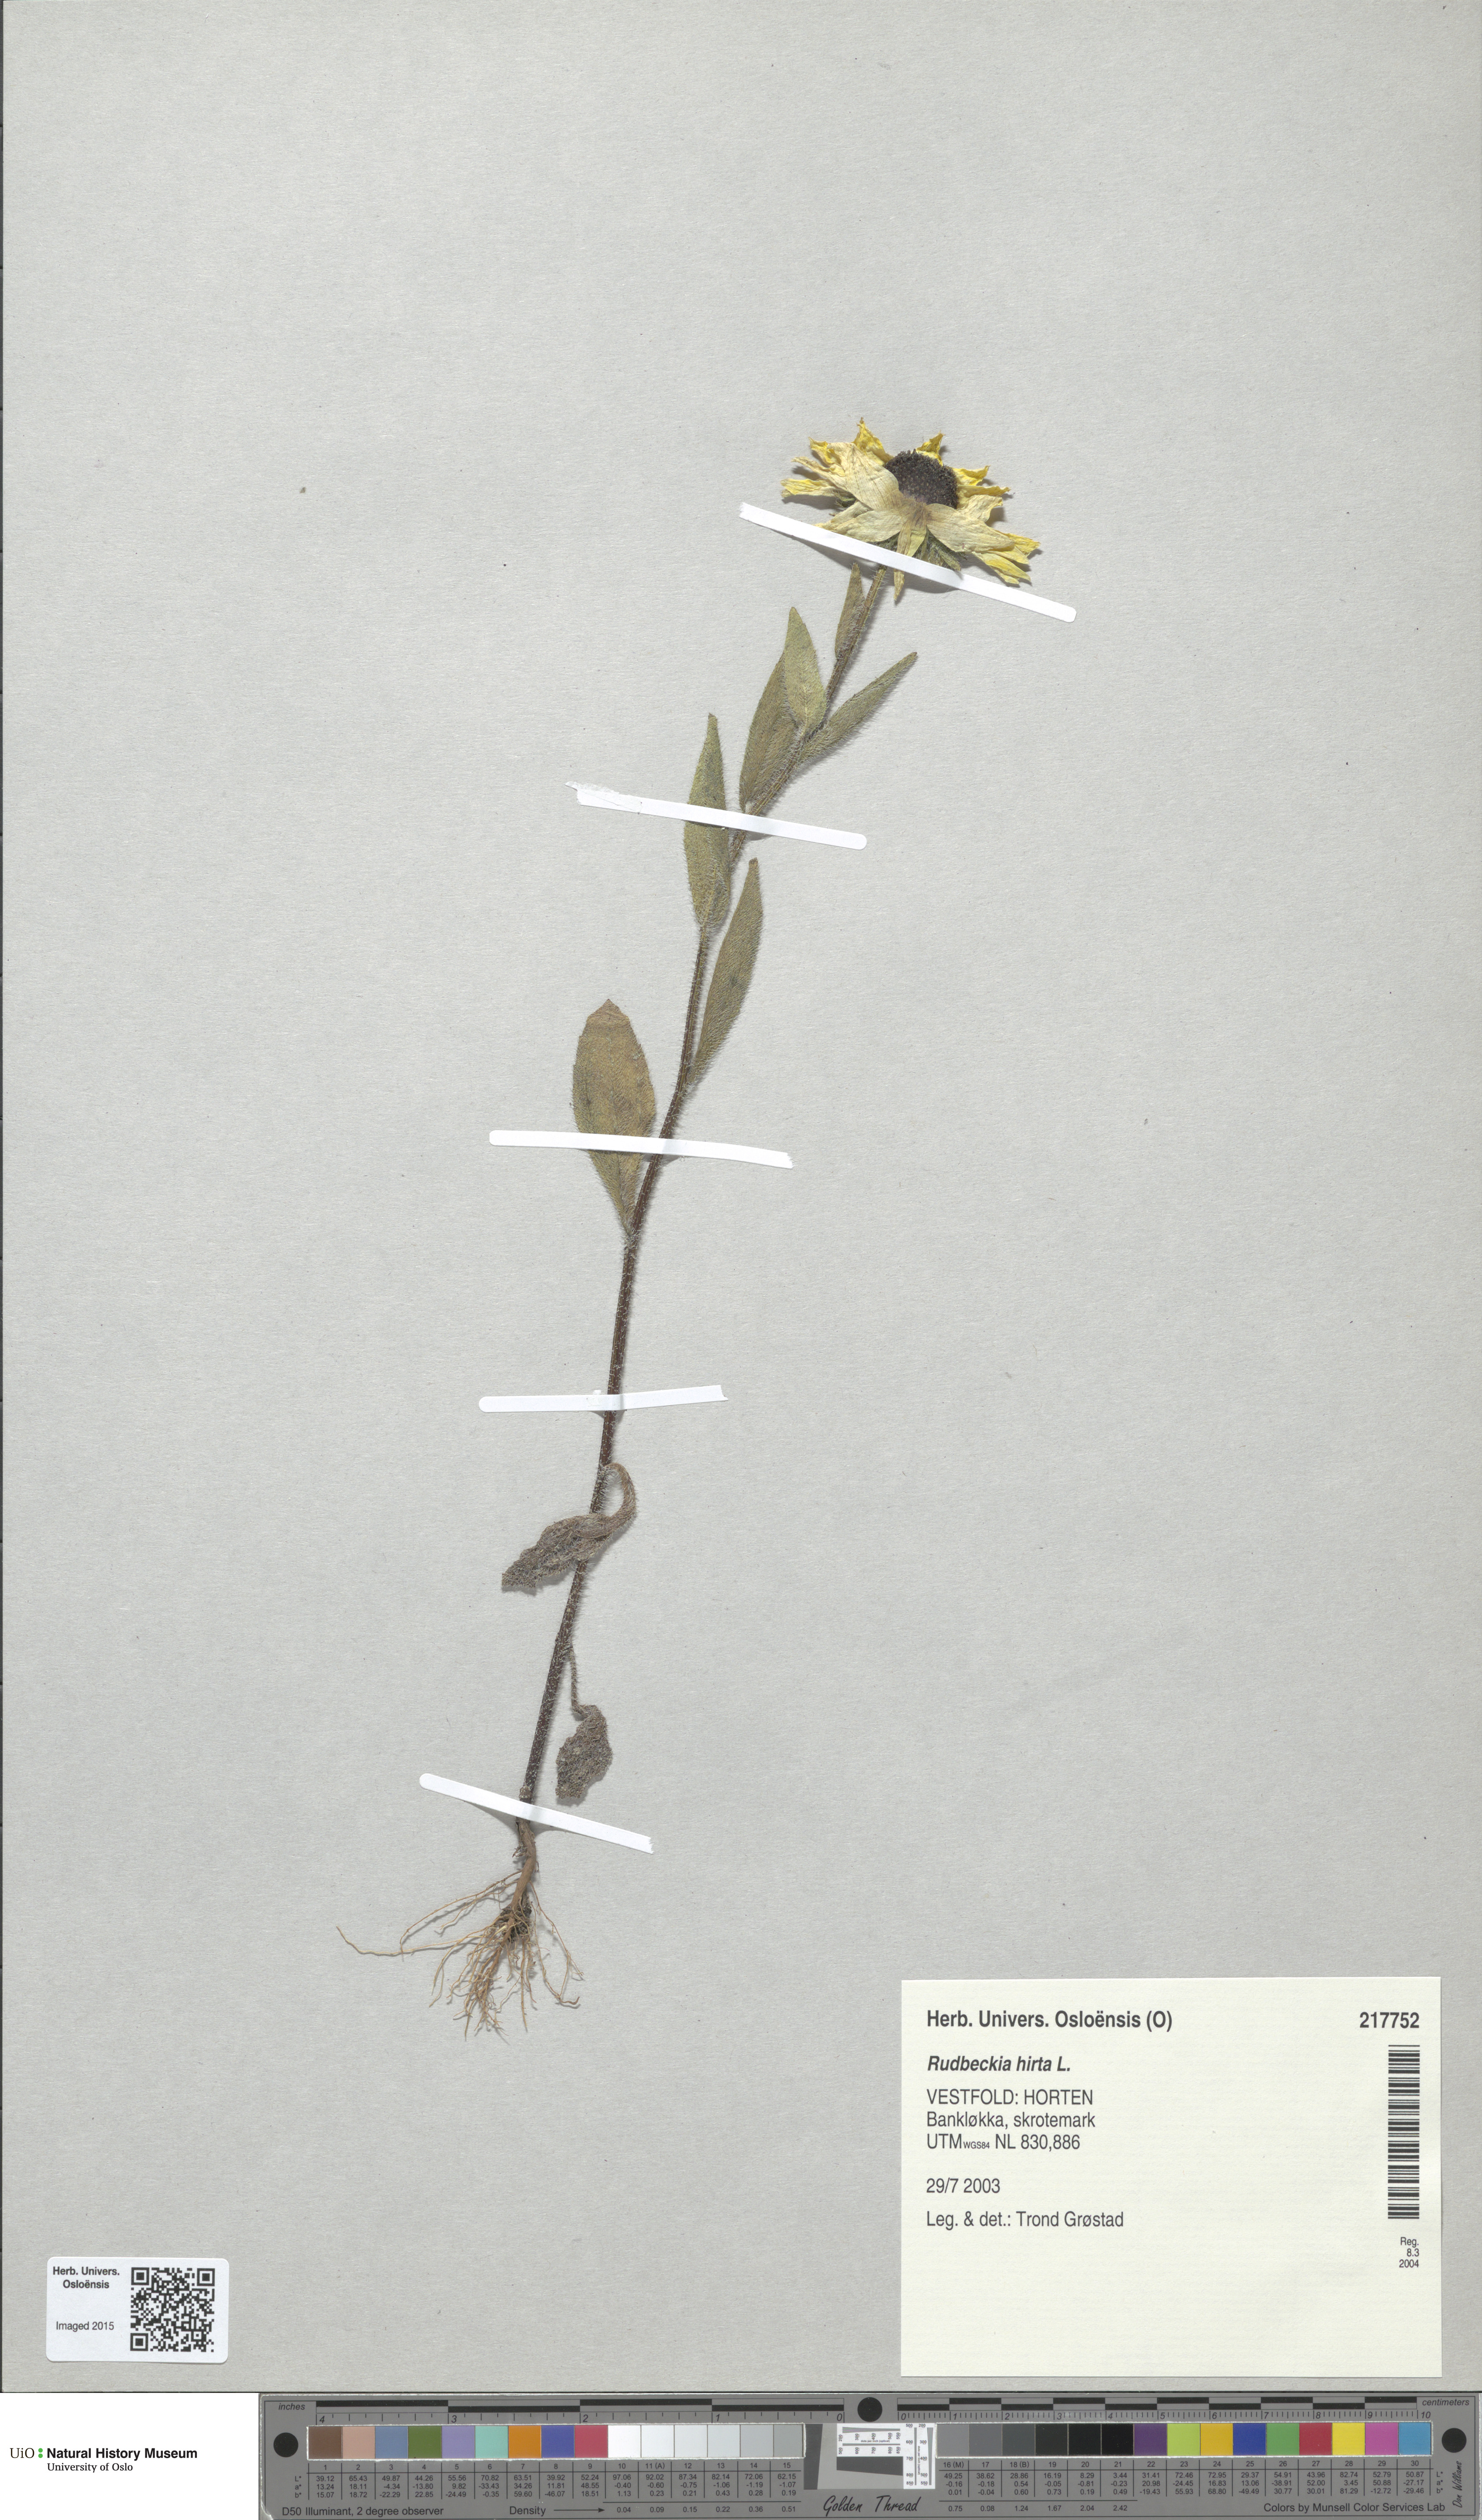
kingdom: Plantae
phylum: Tracheophyta
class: Magnoliopsida
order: Asterales
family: Asteraceae
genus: Rudbeckia
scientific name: Rudbeckia hirta
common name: Black-eyed-susan
